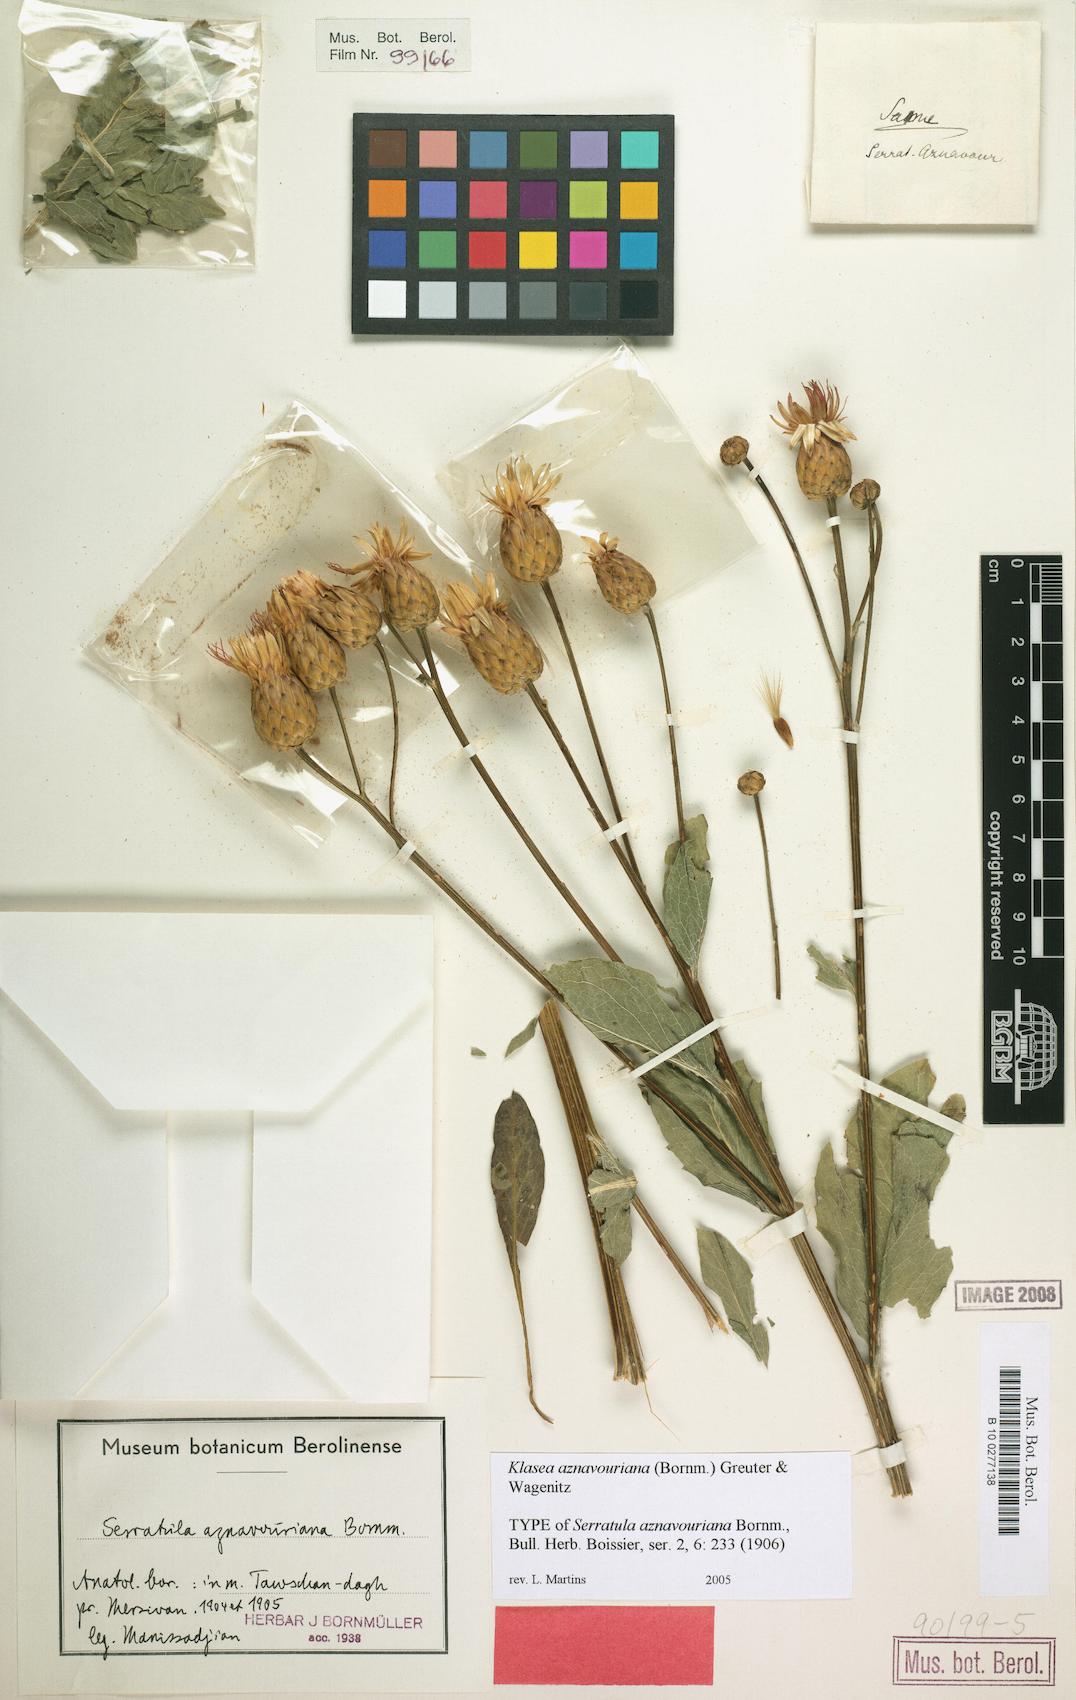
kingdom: Plantae
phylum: Tracheophyta
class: Magnoliopsida
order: Asterales
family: Asteraceae
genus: Klasea
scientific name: Klasea aznavouriana
